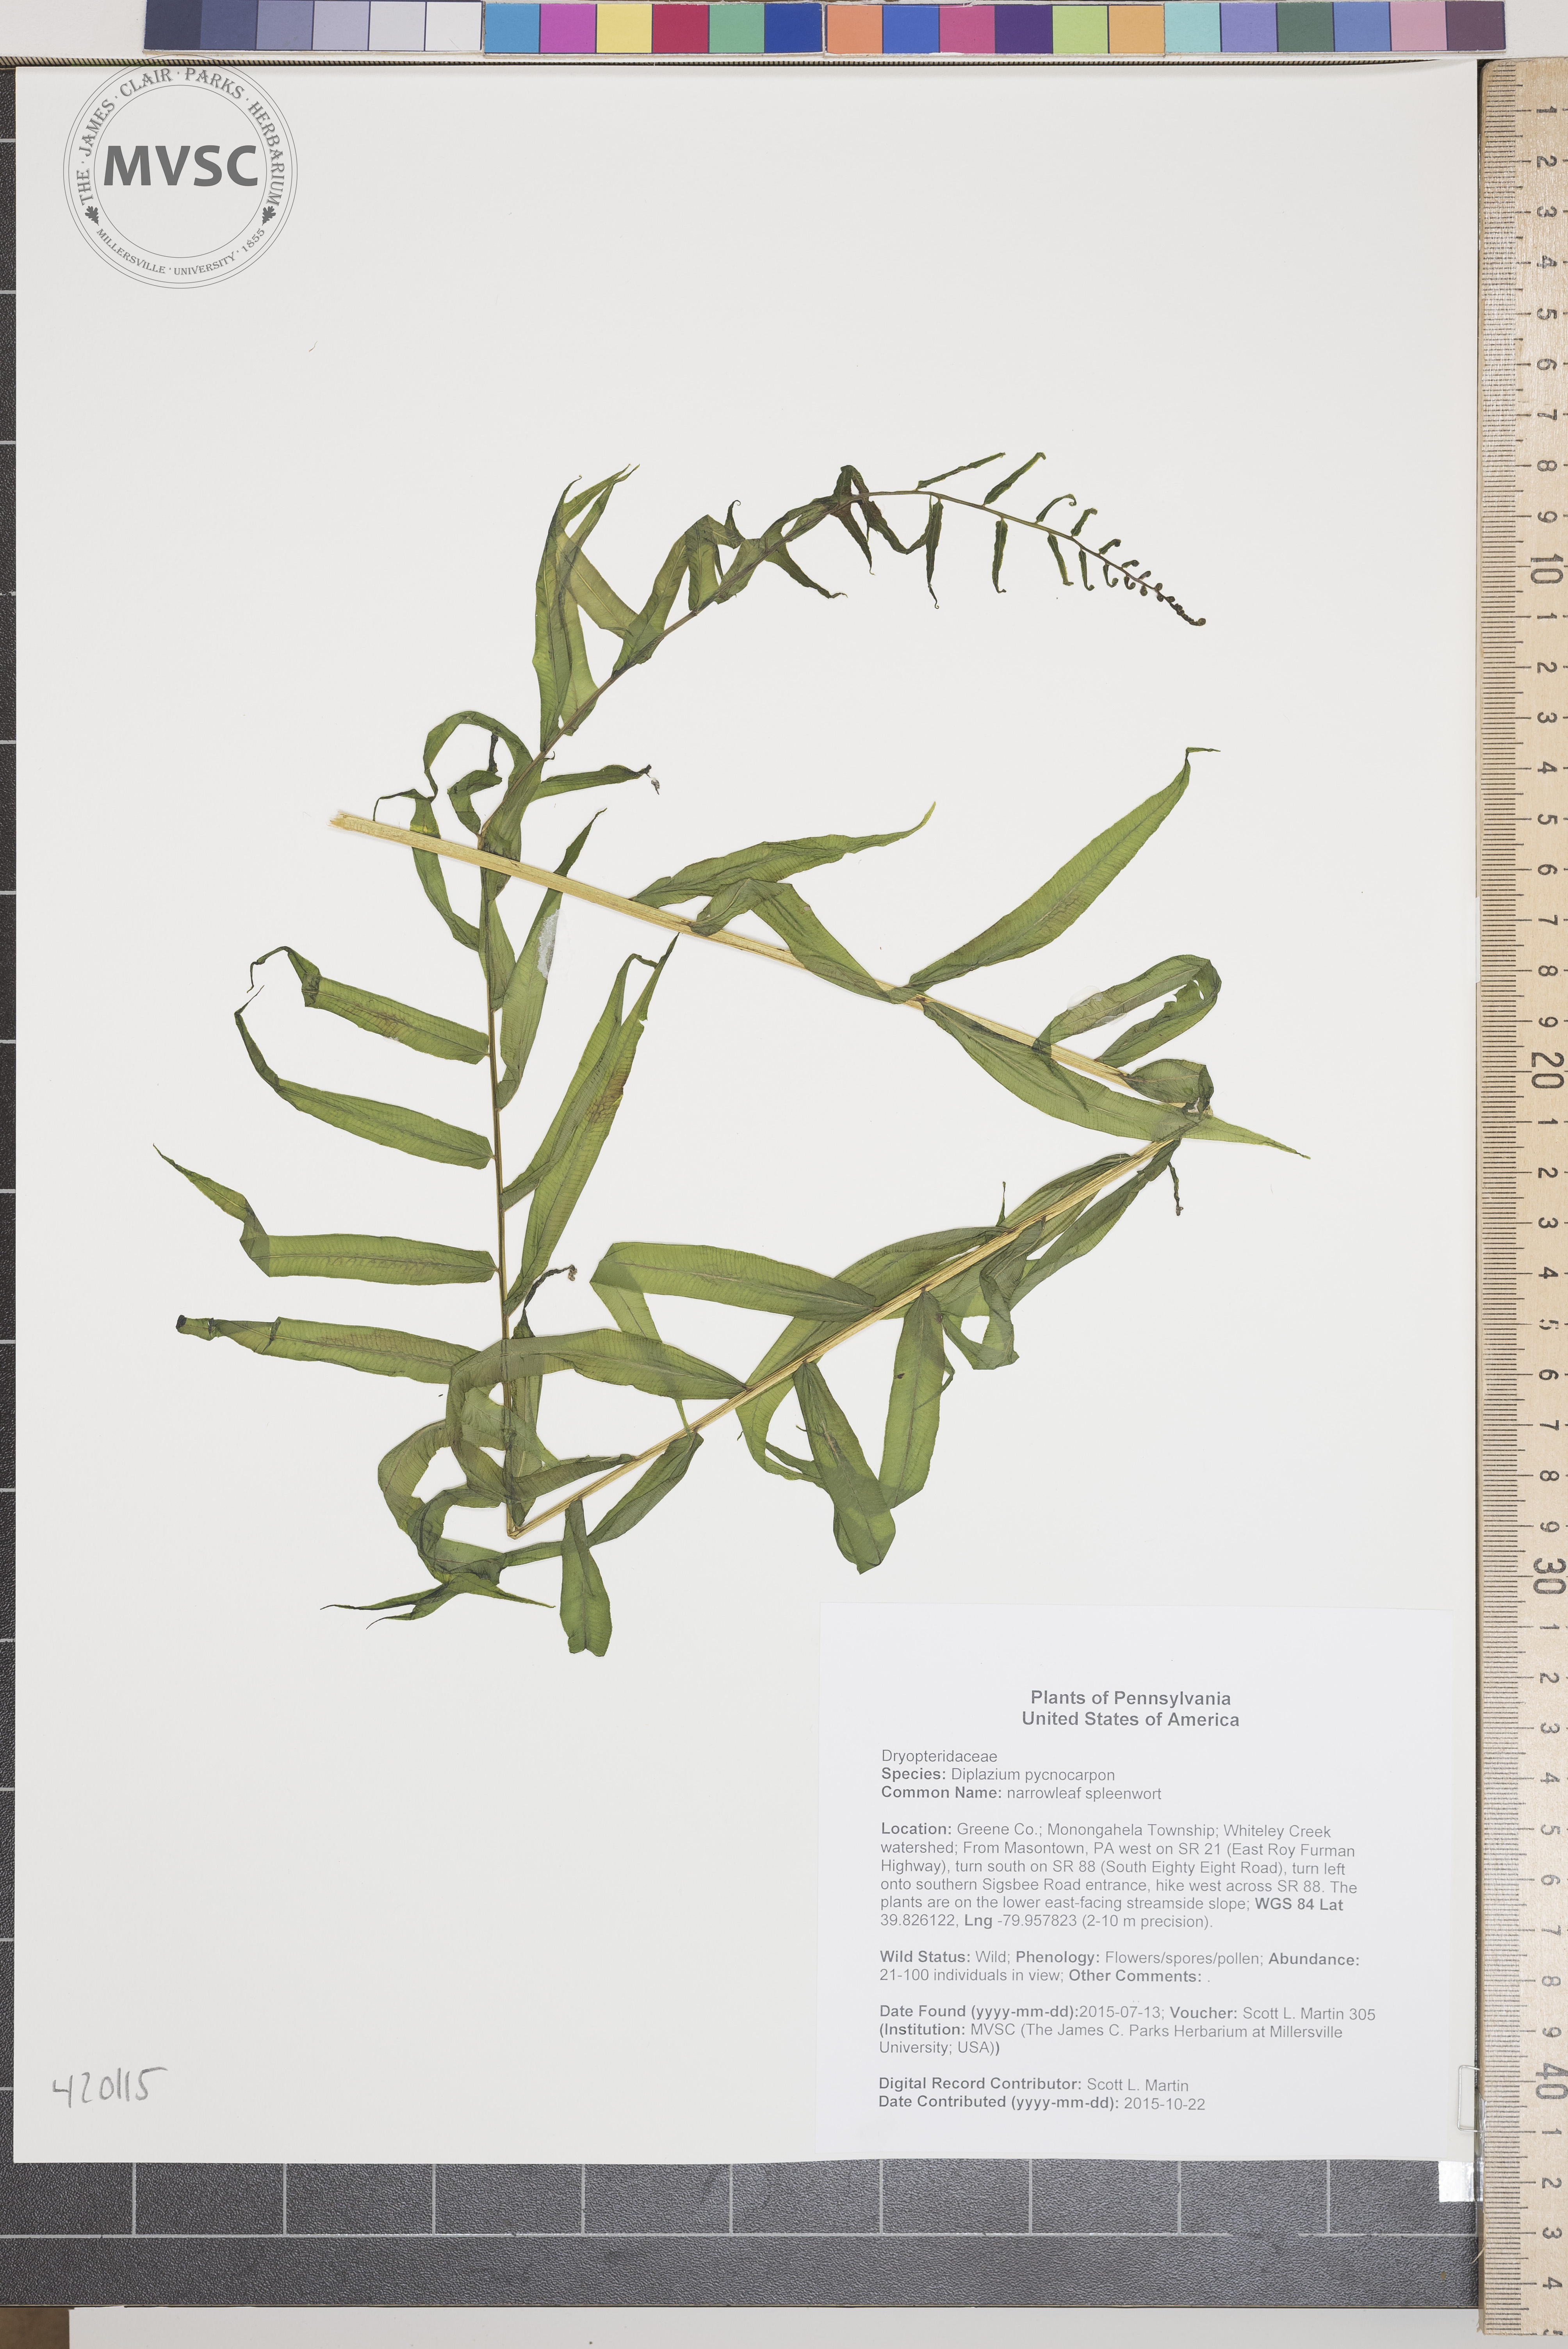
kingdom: Plantae
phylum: Tracheophyta
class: Polypodiopsida
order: Polypodiales
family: Diplaziopsidaceae
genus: Homalosorus
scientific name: Homalosorus pycnocarpos
